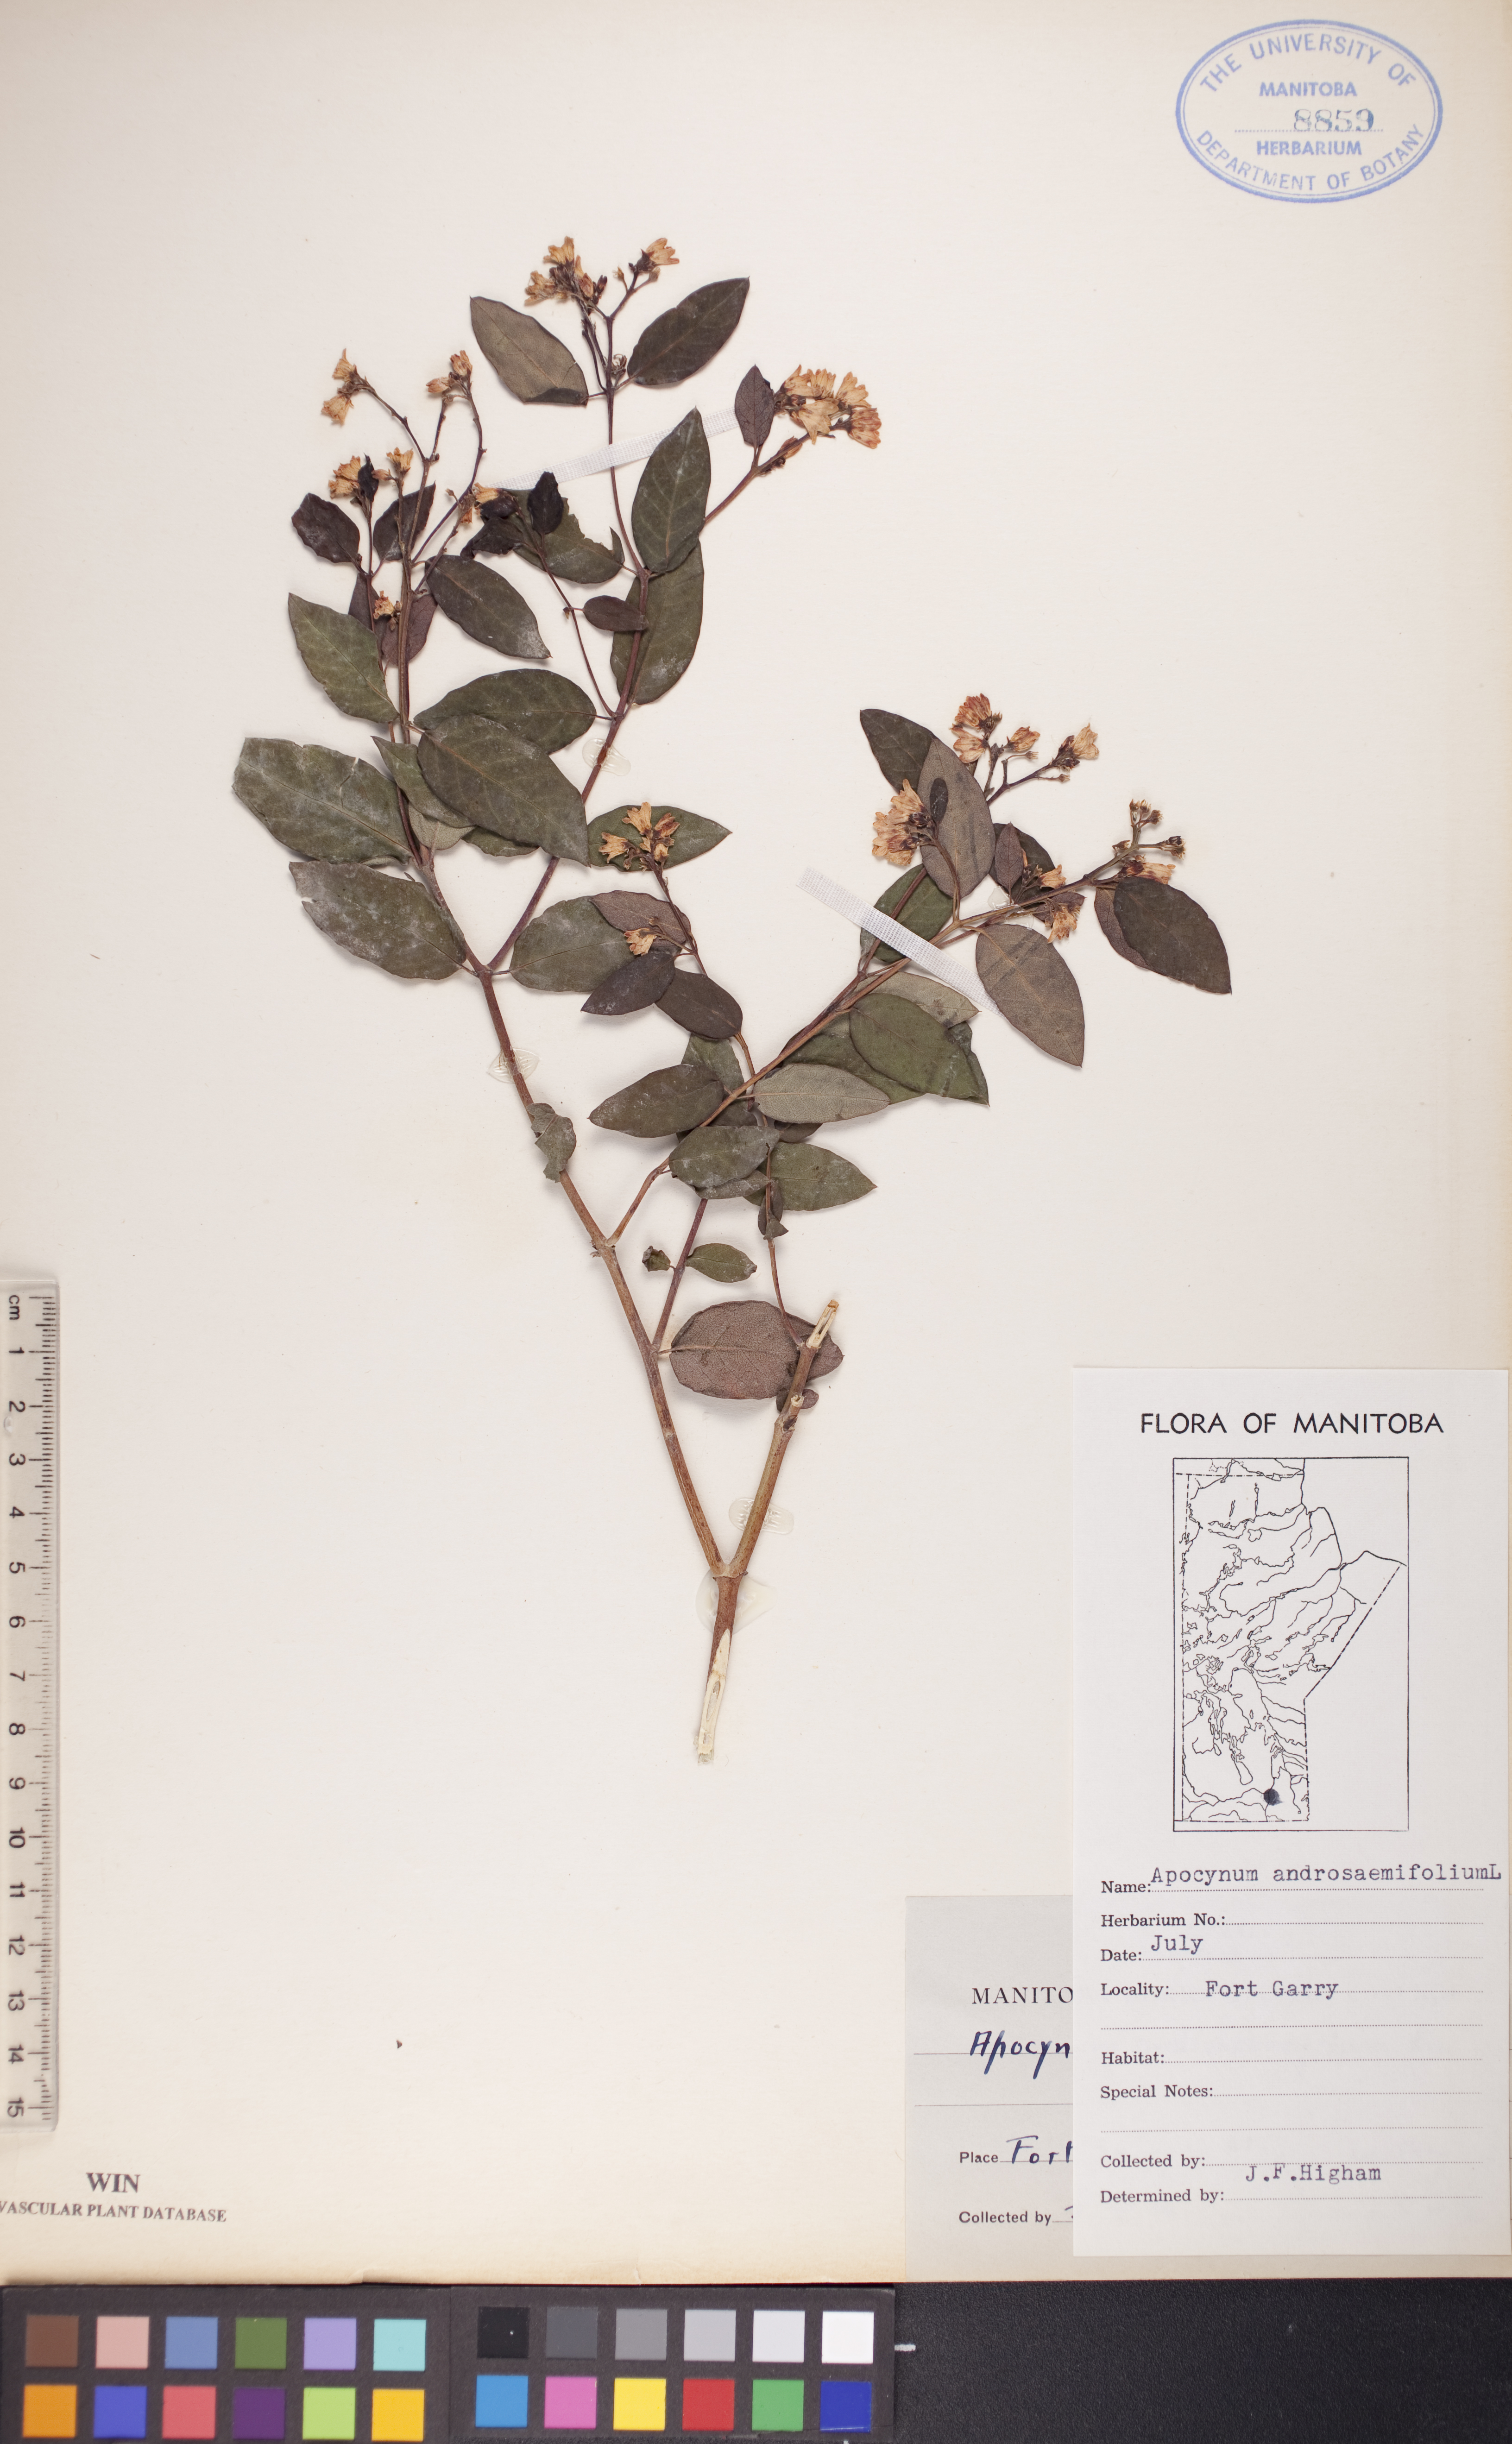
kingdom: Plantae
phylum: Tracheophyta
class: Magnoliopsida
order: Gentianales
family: Apocynaceae
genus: Apocynum
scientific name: Apocynum androsaemifolium
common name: Spreading dogbane
